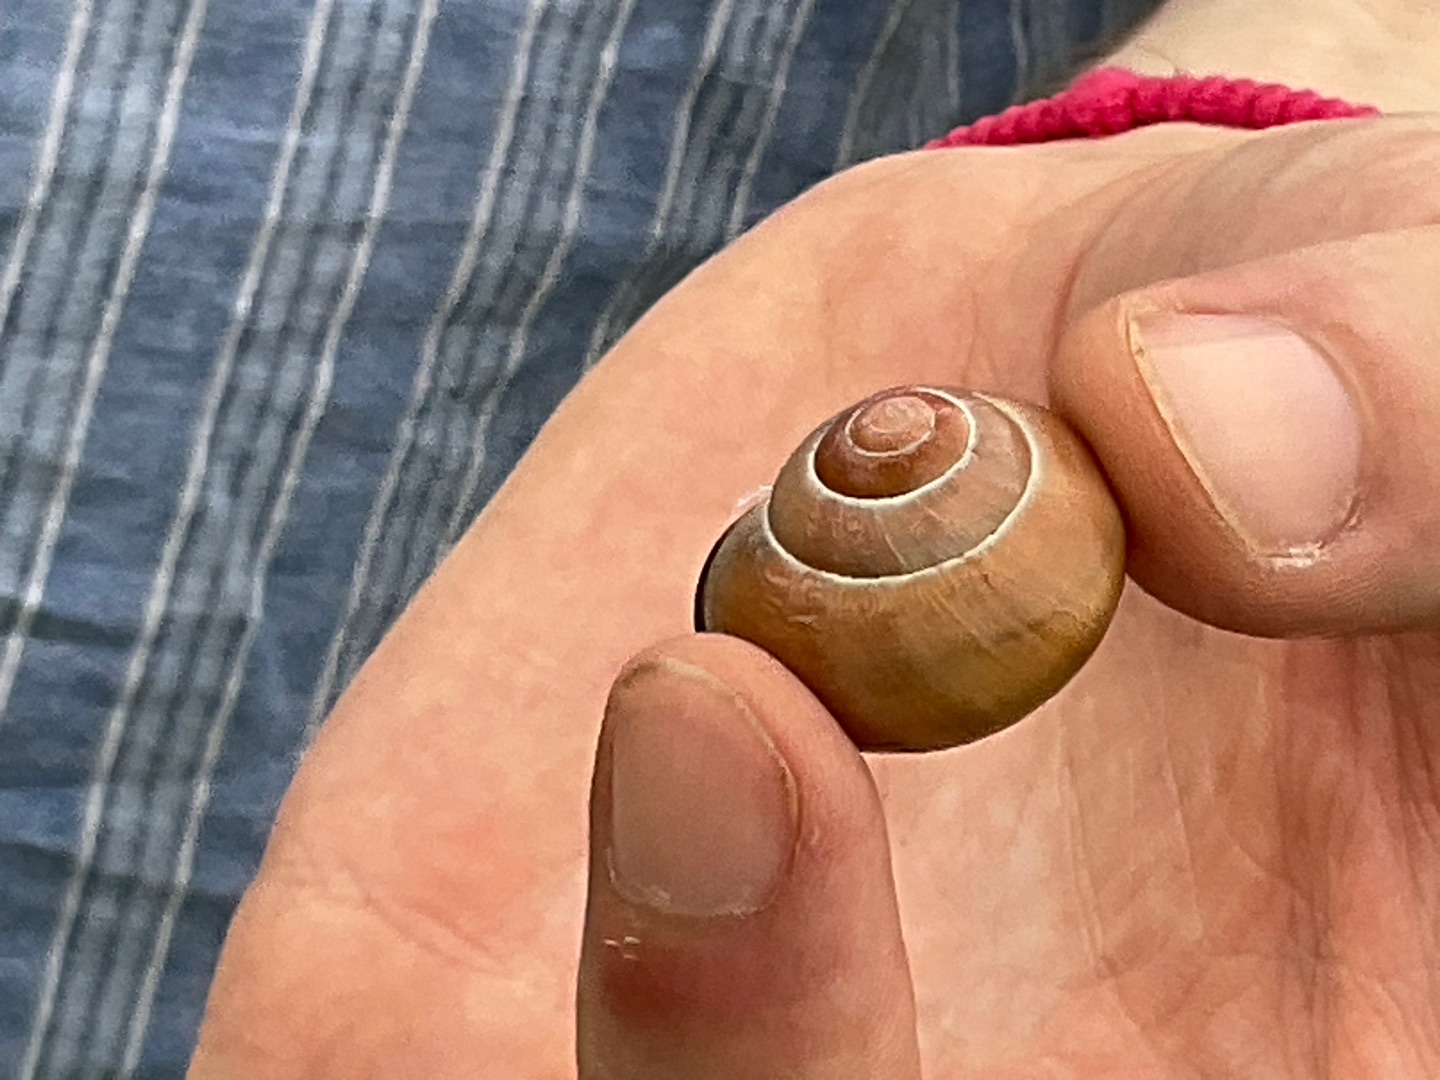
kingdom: Animalia
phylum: Mollusca
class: Gastropoda
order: Stylommatophora
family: Helicidae
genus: Cepaea
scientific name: Cepaea nemoralis
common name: Lundsnegl
